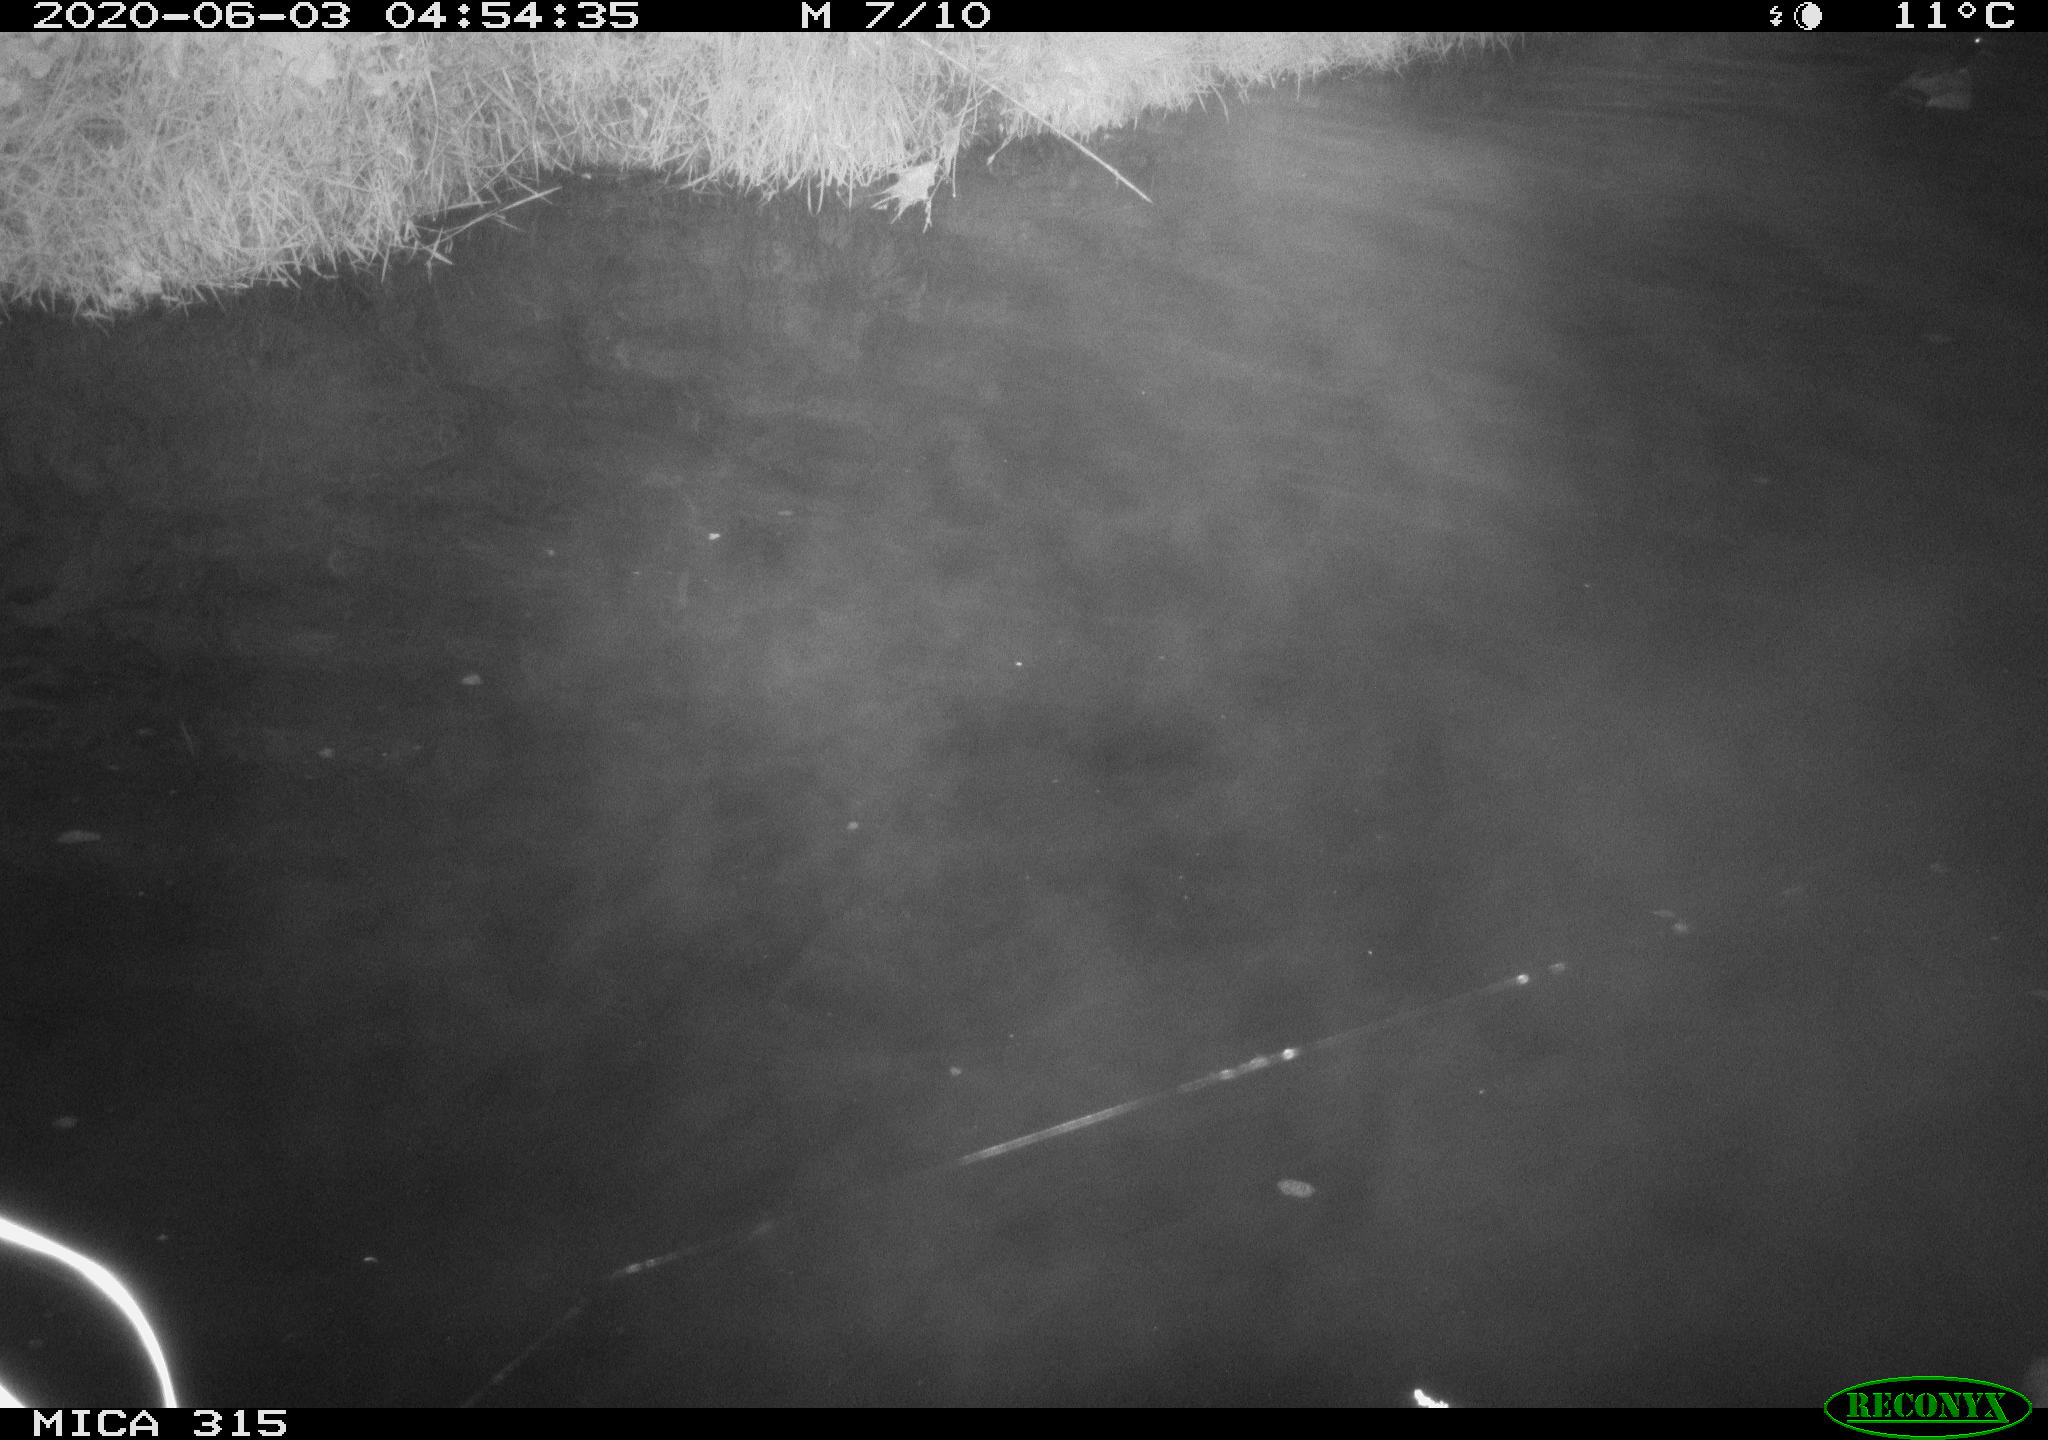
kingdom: Animalia
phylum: Chordata
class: Aves
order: Anseriformes
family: Anatidae
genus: Anas
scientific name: Anas platyrhynchos
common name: Mallard
